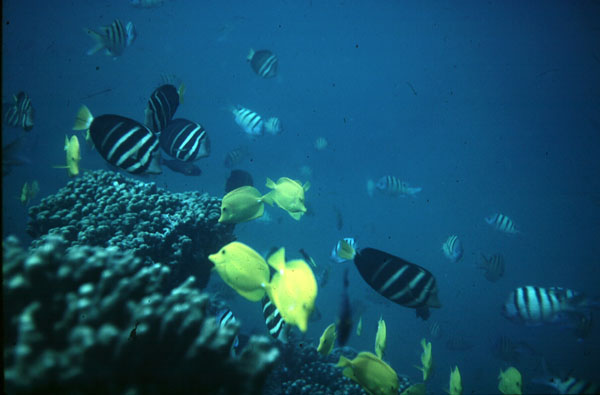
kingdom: Animalia
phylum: Chordata
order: Perciformes
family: Acanthuridae
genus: Zebrasoma
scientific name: Zebrasoma veliferum
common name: Sailfin surgeonfish
